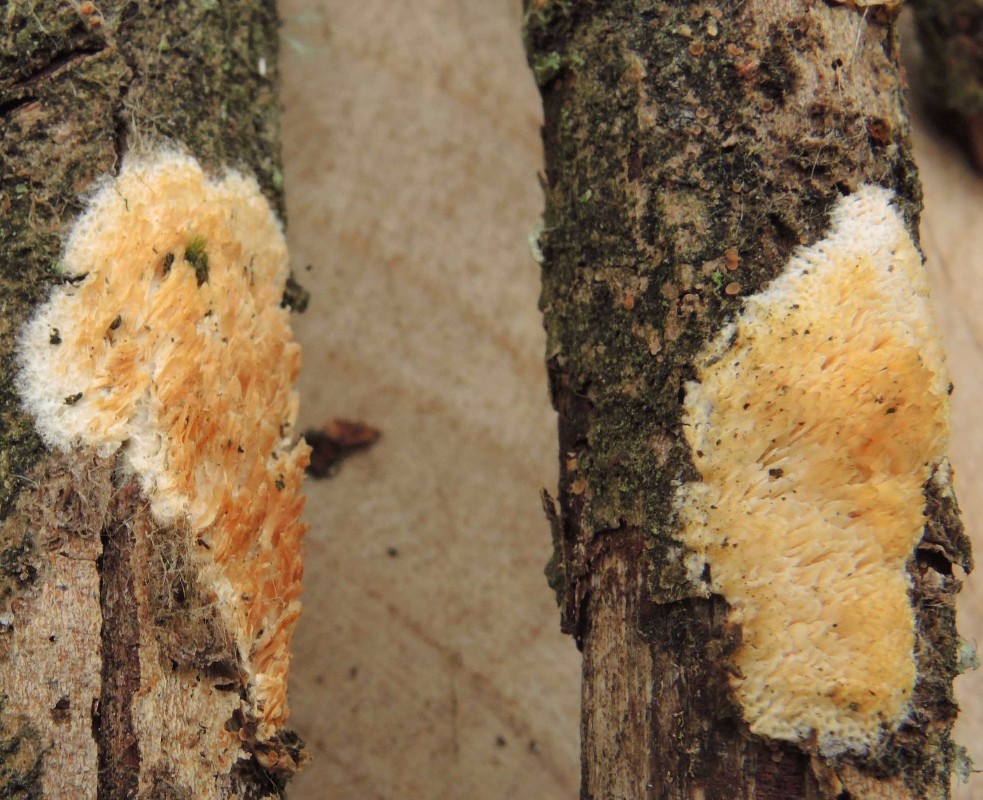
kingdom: Fungi
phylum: Basidiomycota
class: Agaricomycetes
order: Polyporales
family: Steccherinaceae
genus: Niemelaea
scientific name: Niemelaea consobrina
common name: brunlig pastelporesvamp
